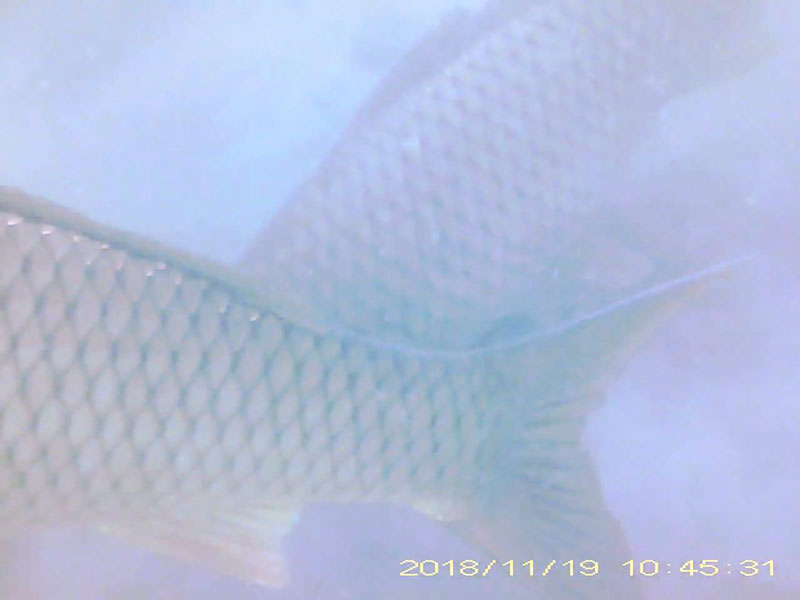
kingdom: Animalia
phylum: Chordata
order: Cypriniformes
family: Cyprinidae
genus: Cyprinus
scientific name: Cyprinus carpio
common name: コイ
